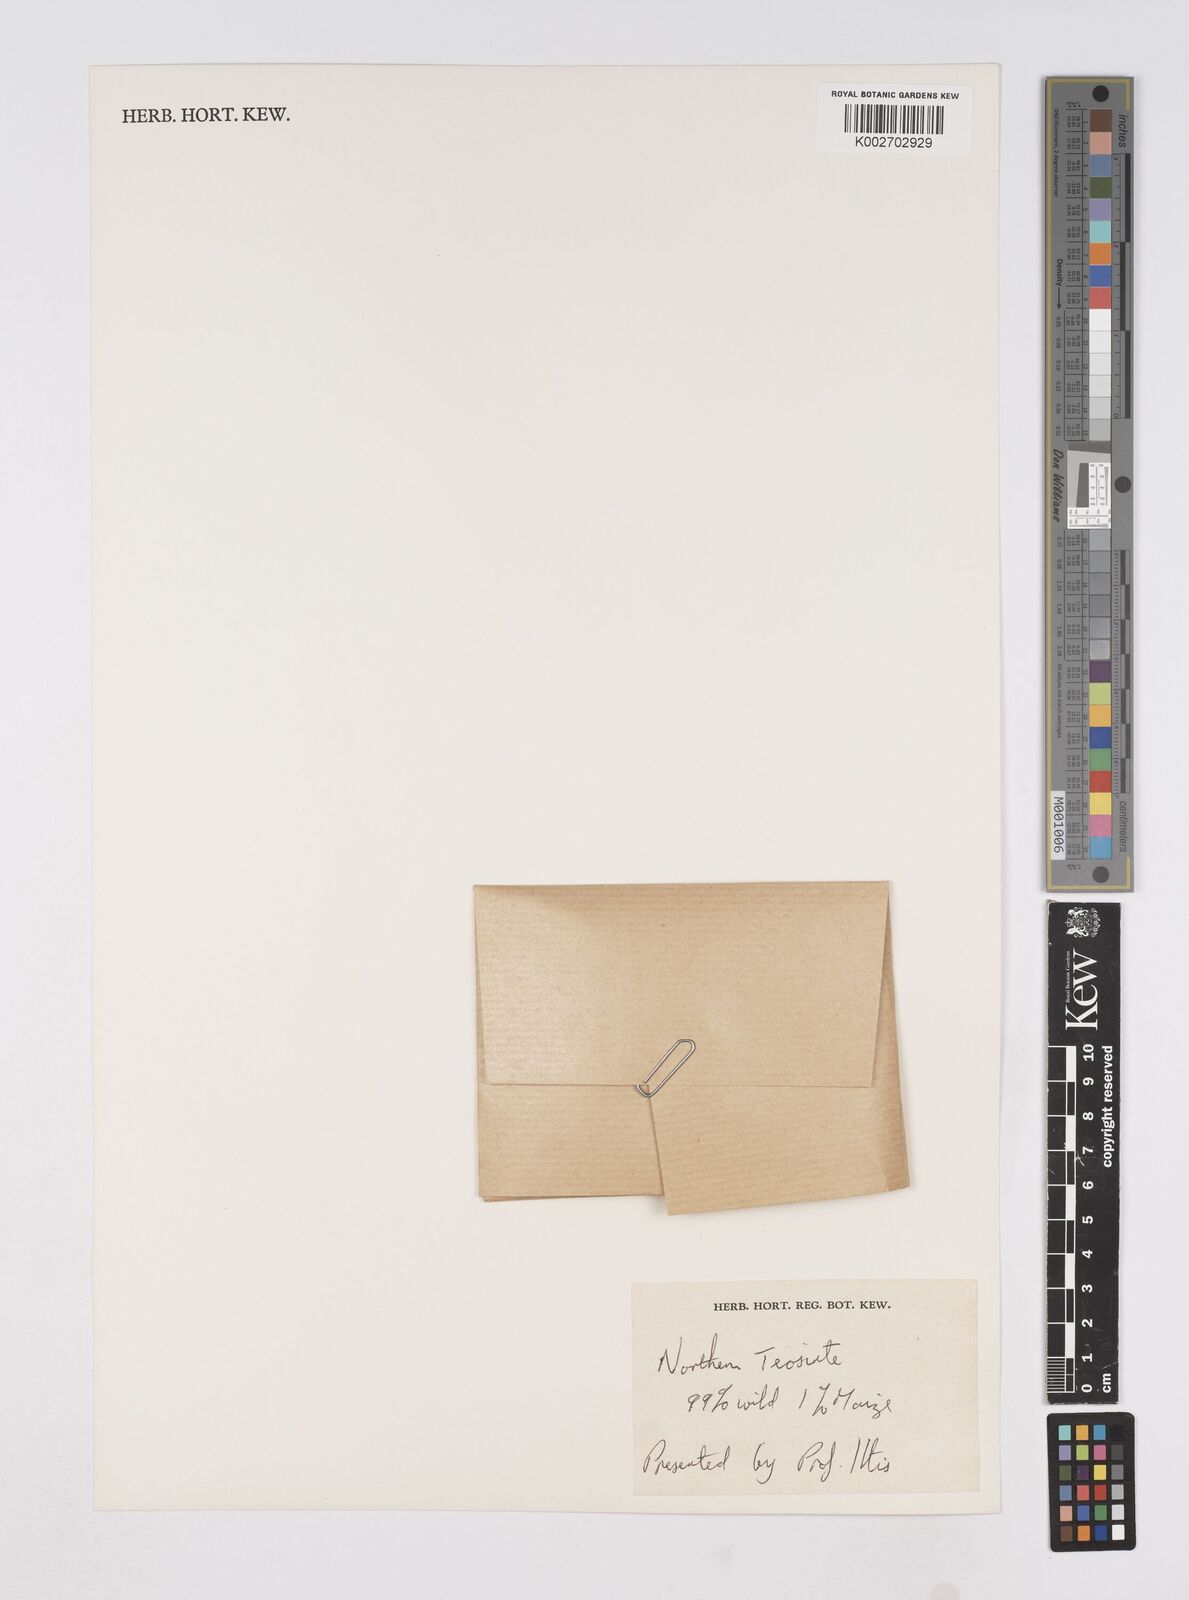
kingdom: Plantae
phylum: Tracheophyta
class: Liliopsida
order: Poales
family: Poaceae
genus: Zea
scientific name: Zea mexicana
